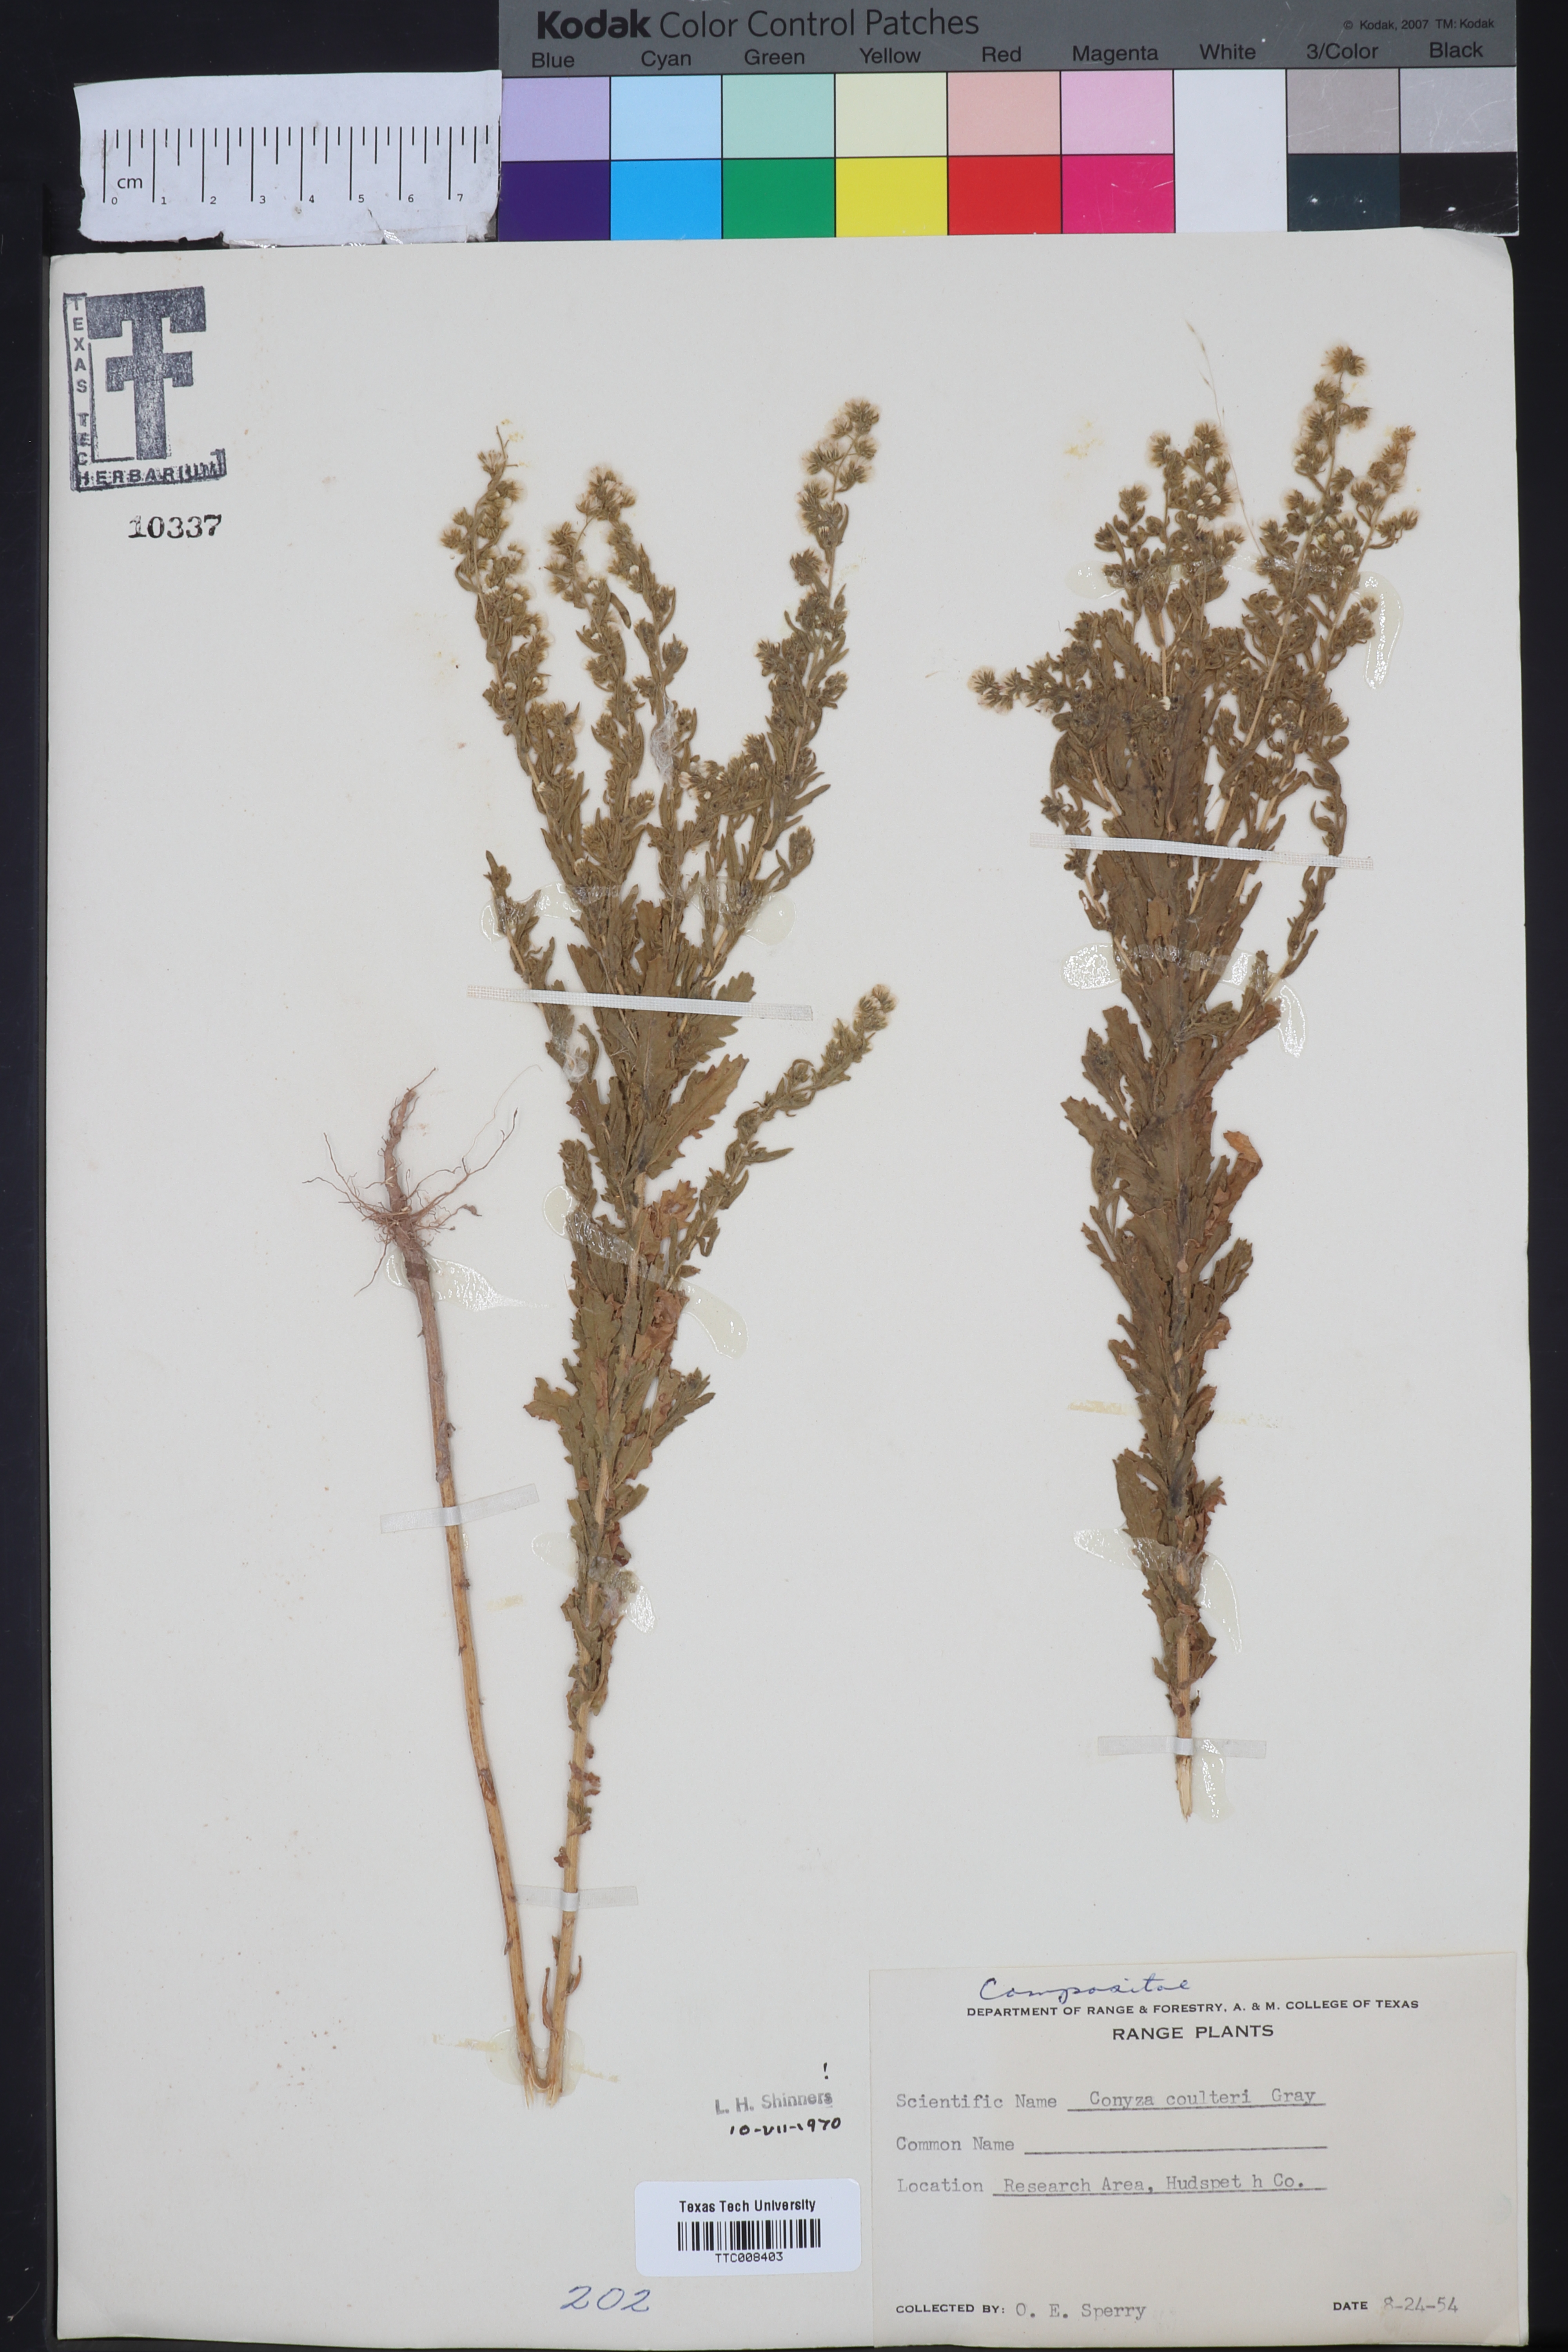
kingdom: Plantae
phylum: Tracheophyta
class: Magnoliopsida
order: Asterales
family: Asteraceae
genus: Laennecia
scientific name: Laennecia coulteri
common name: Coulter's woolwort
